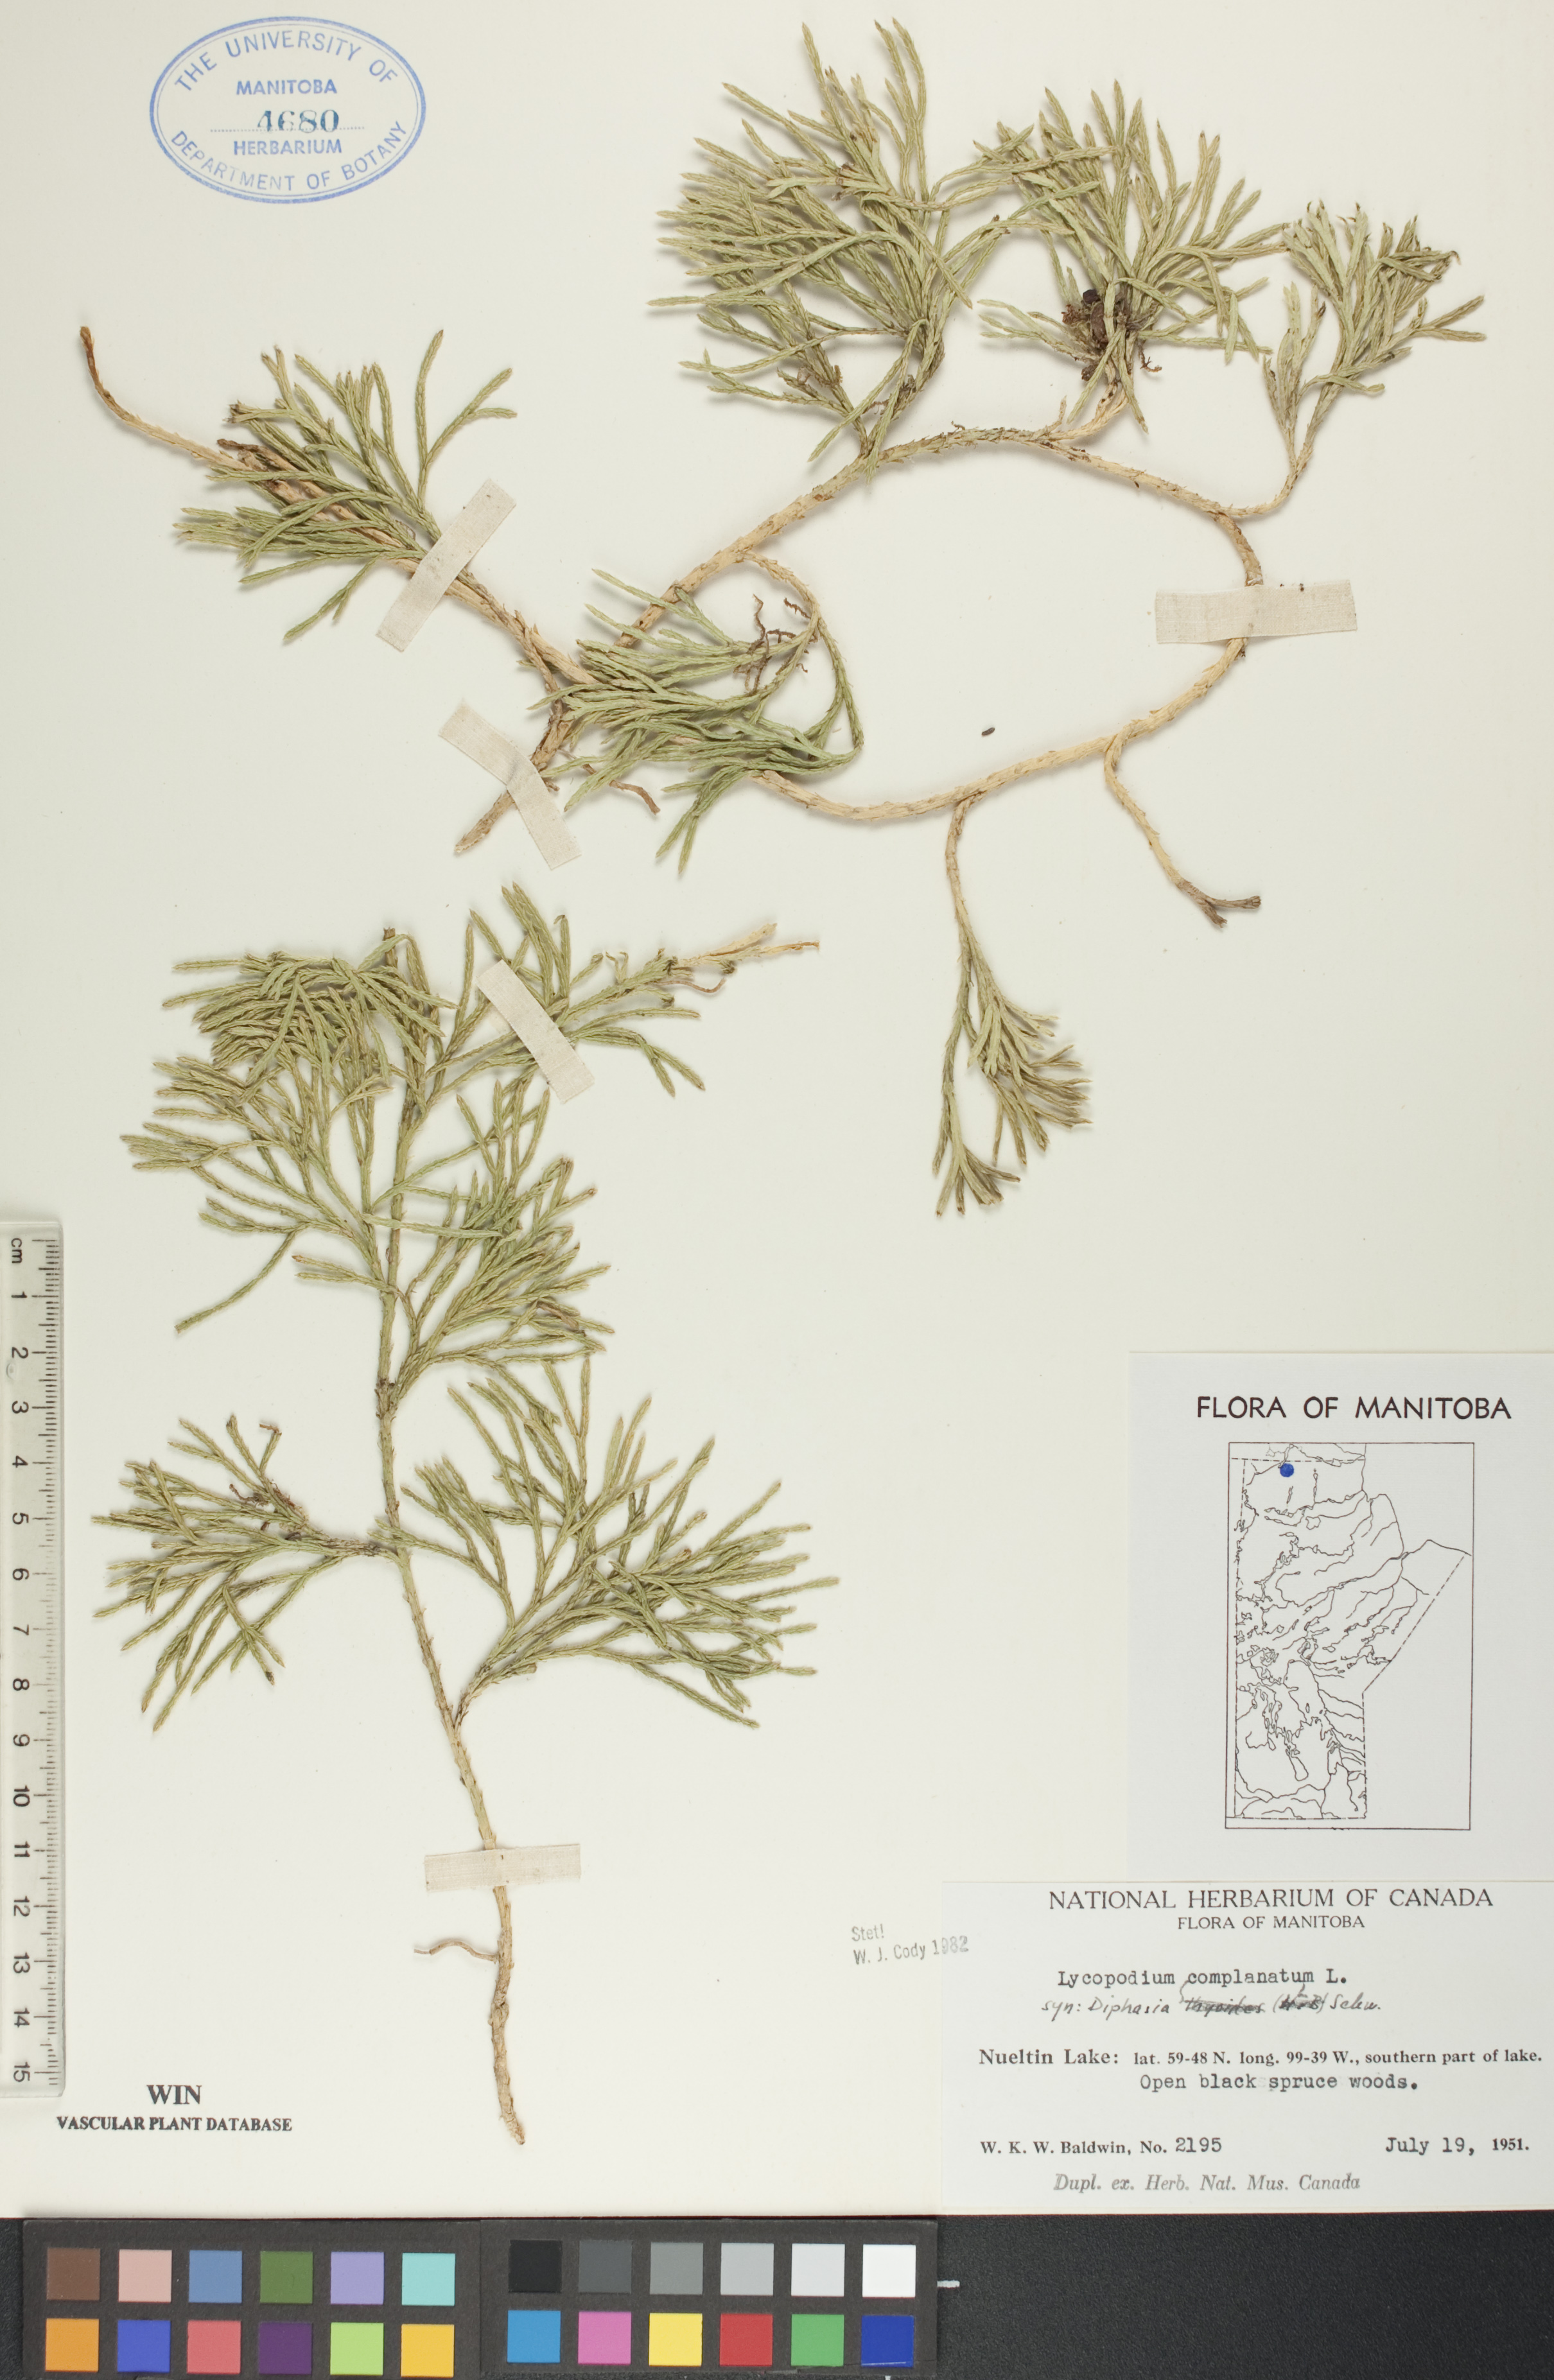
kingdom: Plantae
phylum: Tracheophyta
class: Lycopodiopsida
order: Lycopodiales
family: Lycopodiaceae
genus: Diphasiastrum
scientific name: Diphasiastrum
